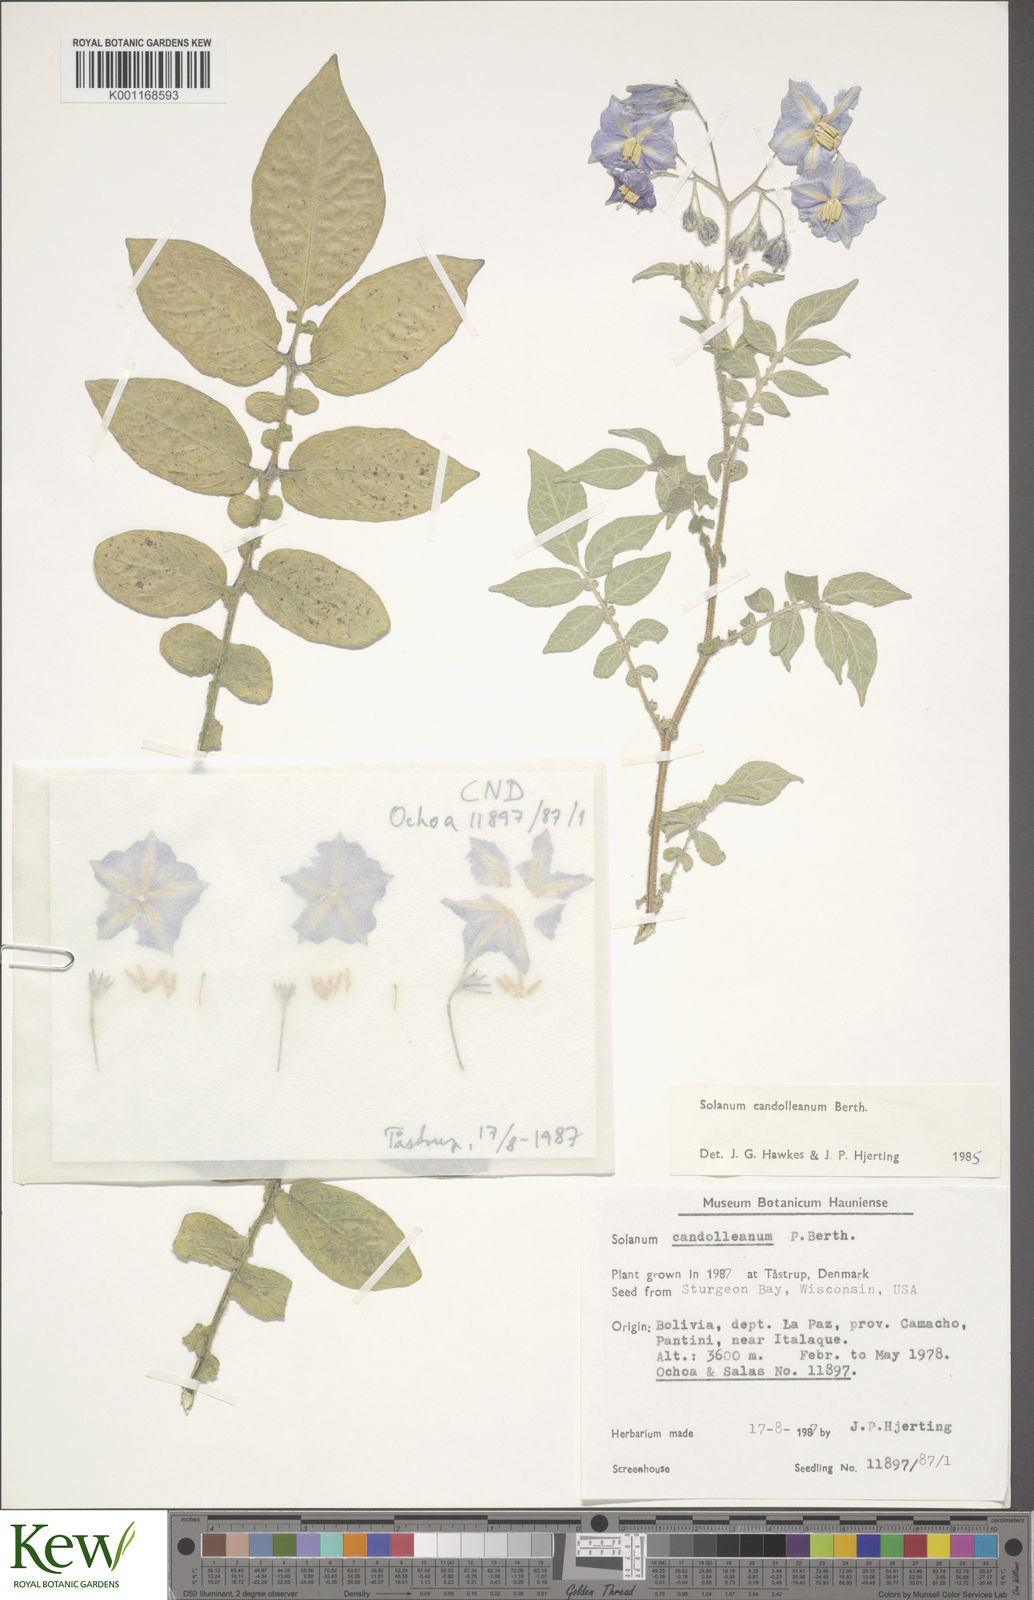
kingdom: Plantae
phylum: Tracheophyta
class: Magnoliopsida
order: Solanales
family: Solanaceae
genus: Solanum
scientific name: Solanum candolleanum
